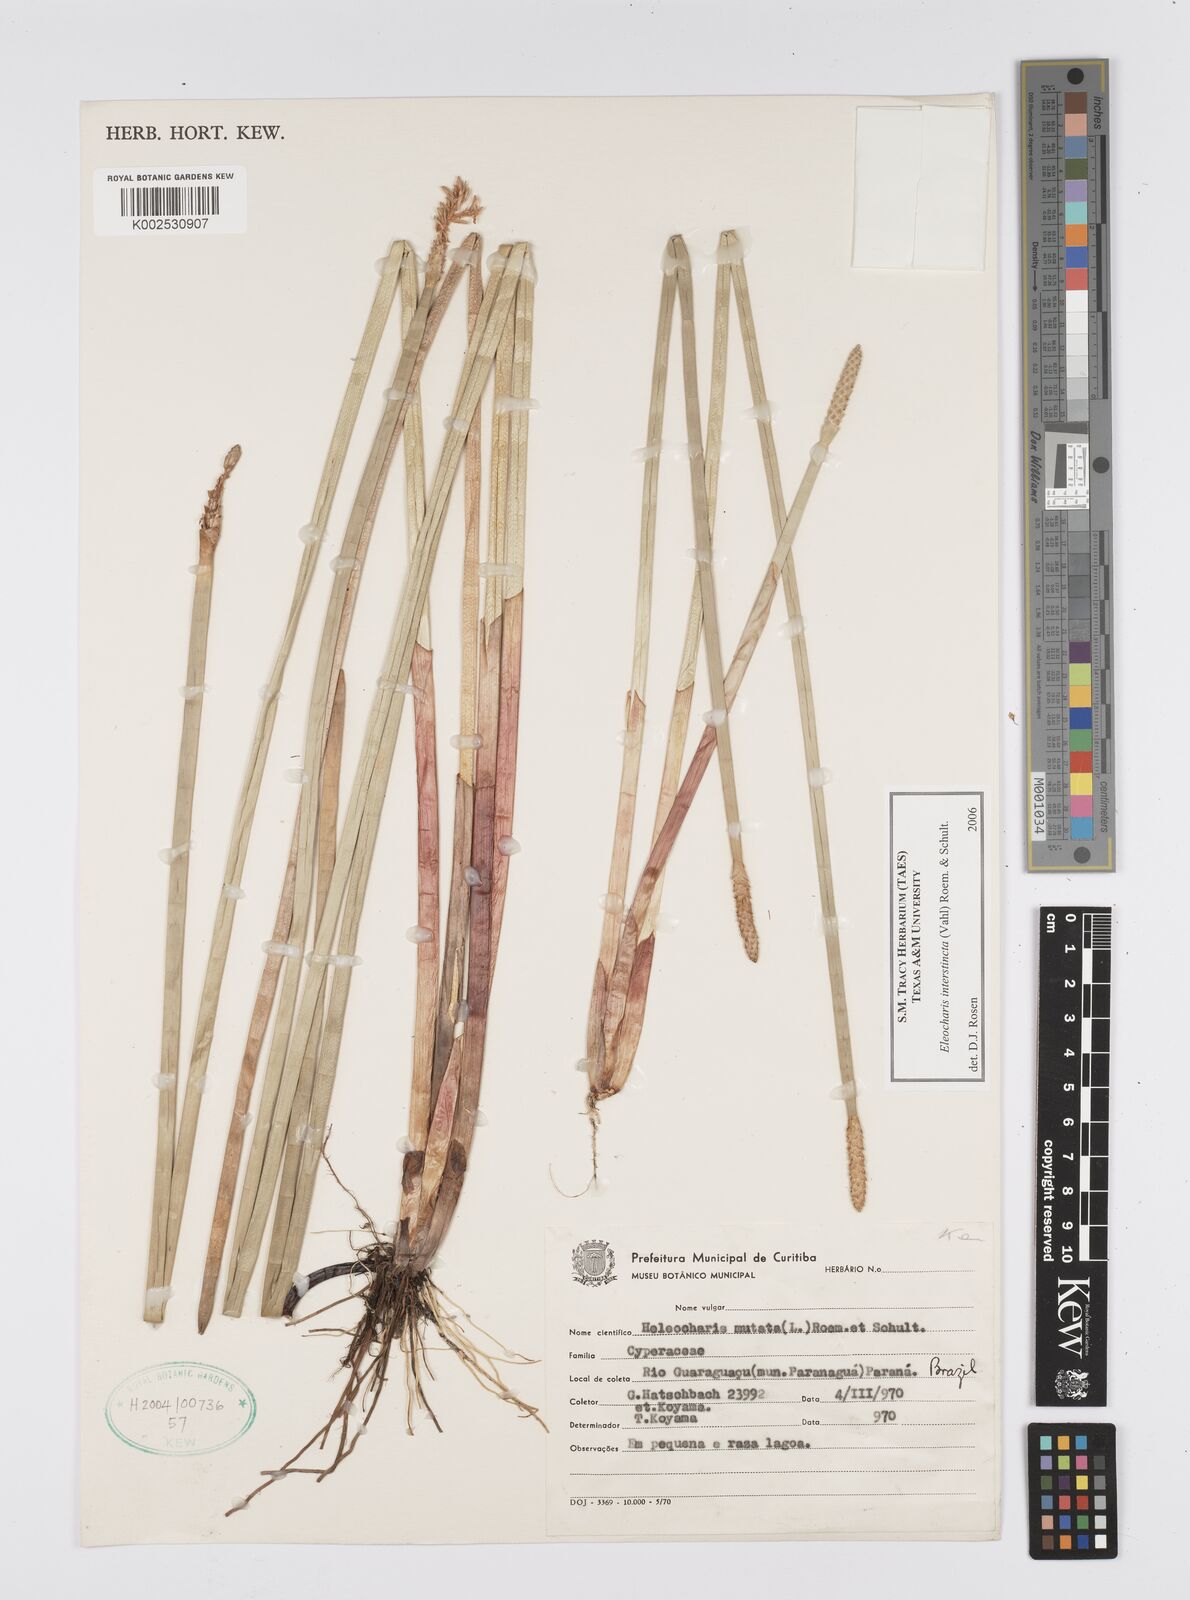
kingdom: Plantae
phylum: Tracheophyta
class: Liliopsida
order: Poales
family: Cyperaceae
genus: Eleocharis
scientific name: Eleocharis interstincta
